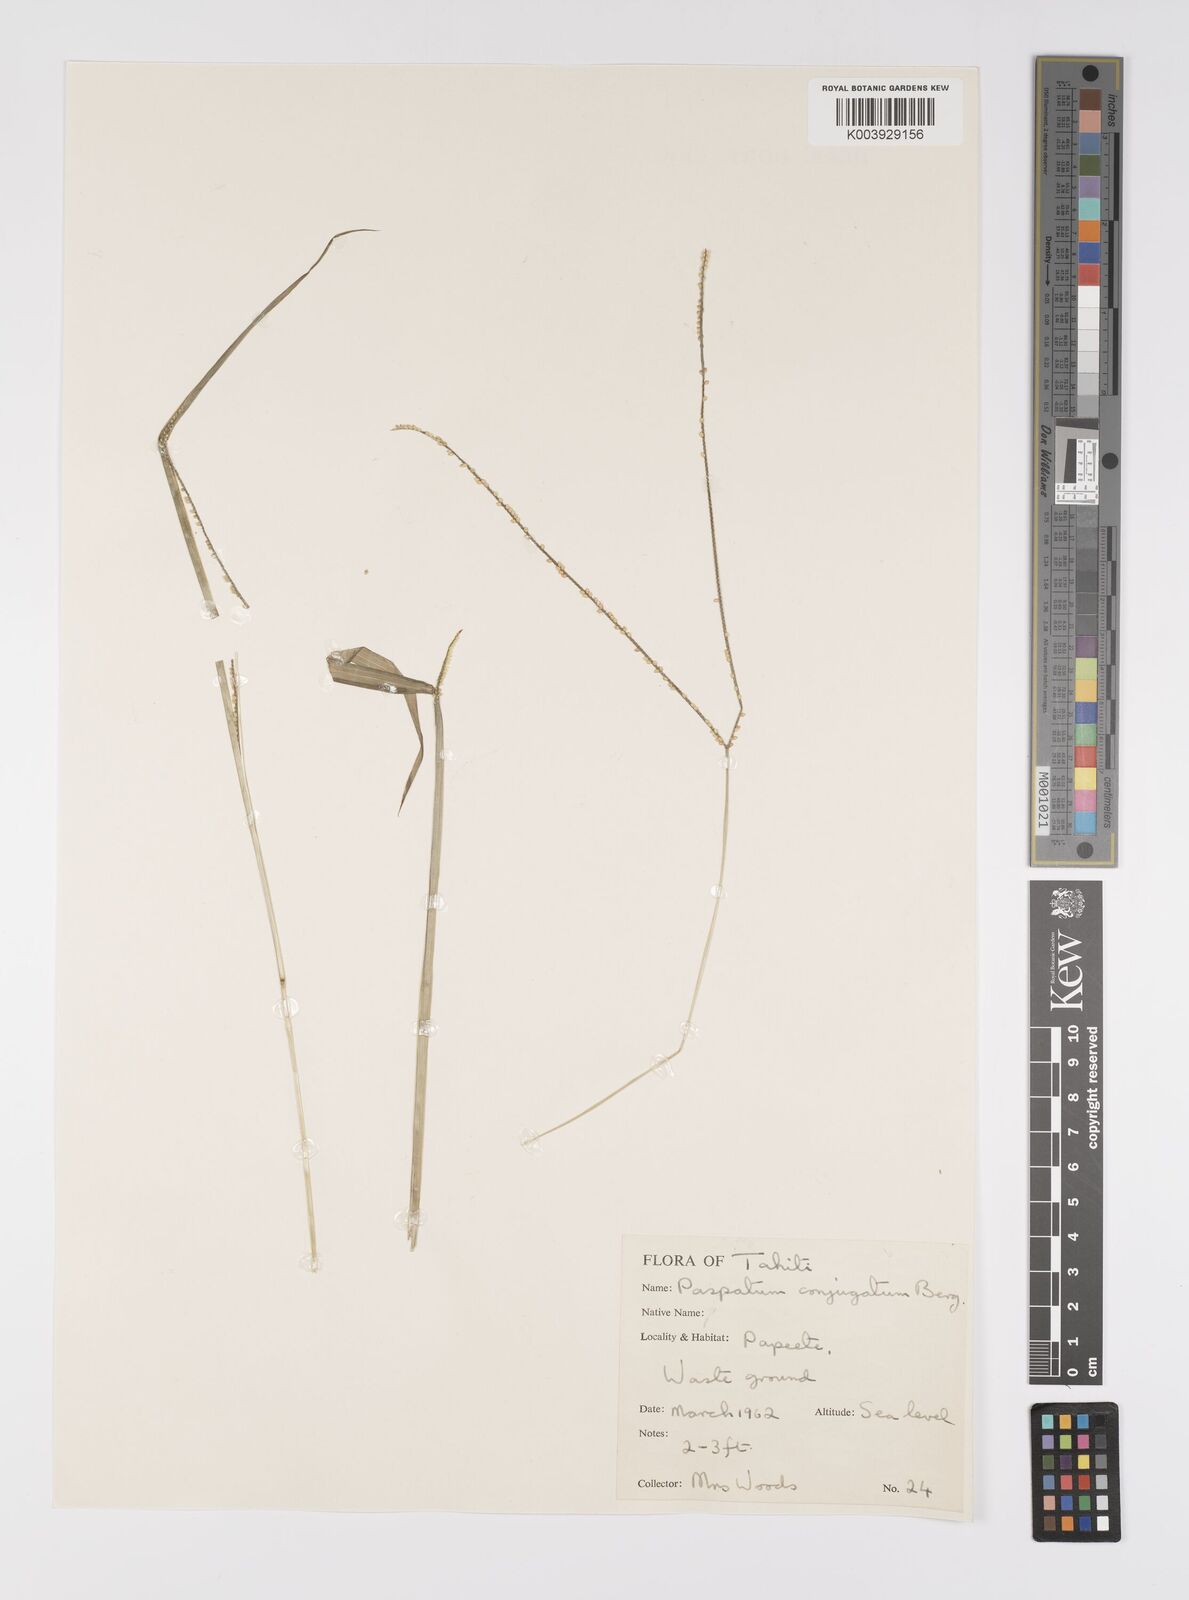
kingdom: Plantae
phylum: Tracheophyta
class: Liliopsida
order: Poales
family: Poaceae
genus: Paspalum
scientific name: Paspalum conjugatum
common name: Hilograss
